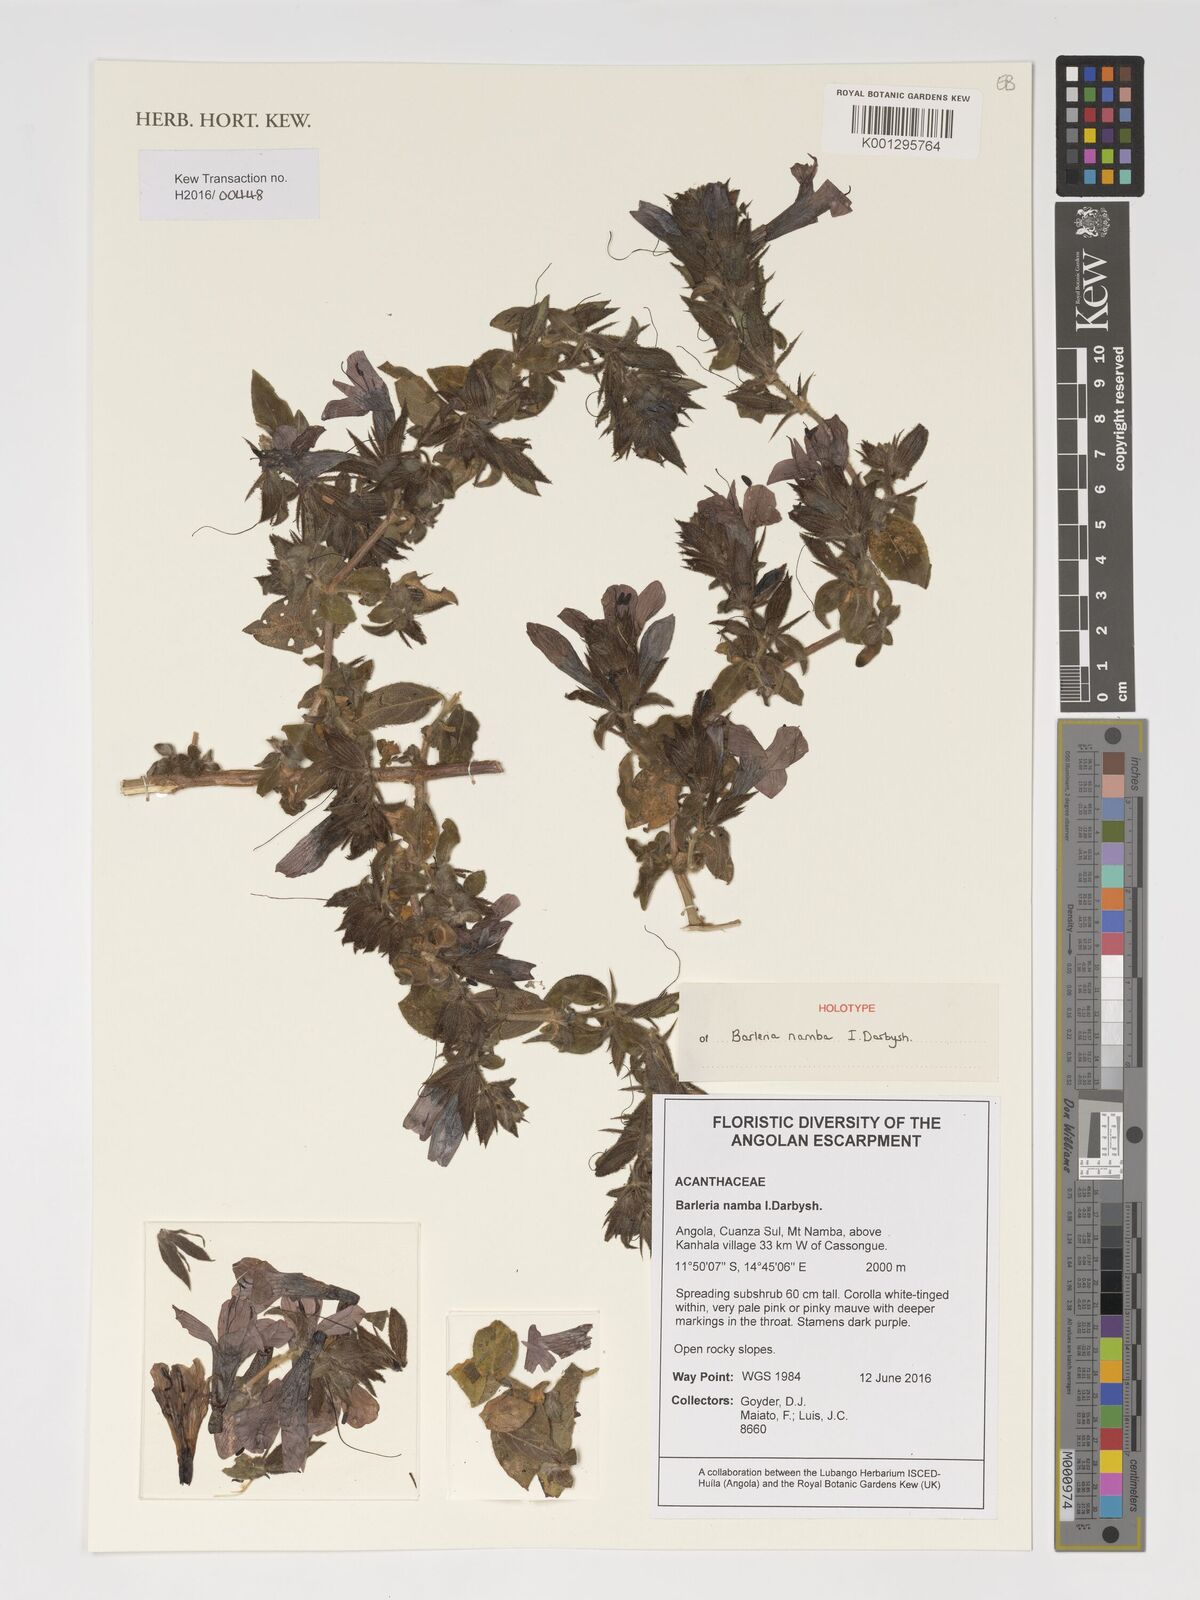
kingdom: Plantae
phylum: Tracheophyta
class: Magnoliopsida
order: Lamiales
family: Acanthaceae
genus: Barleria
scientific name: Barleria
